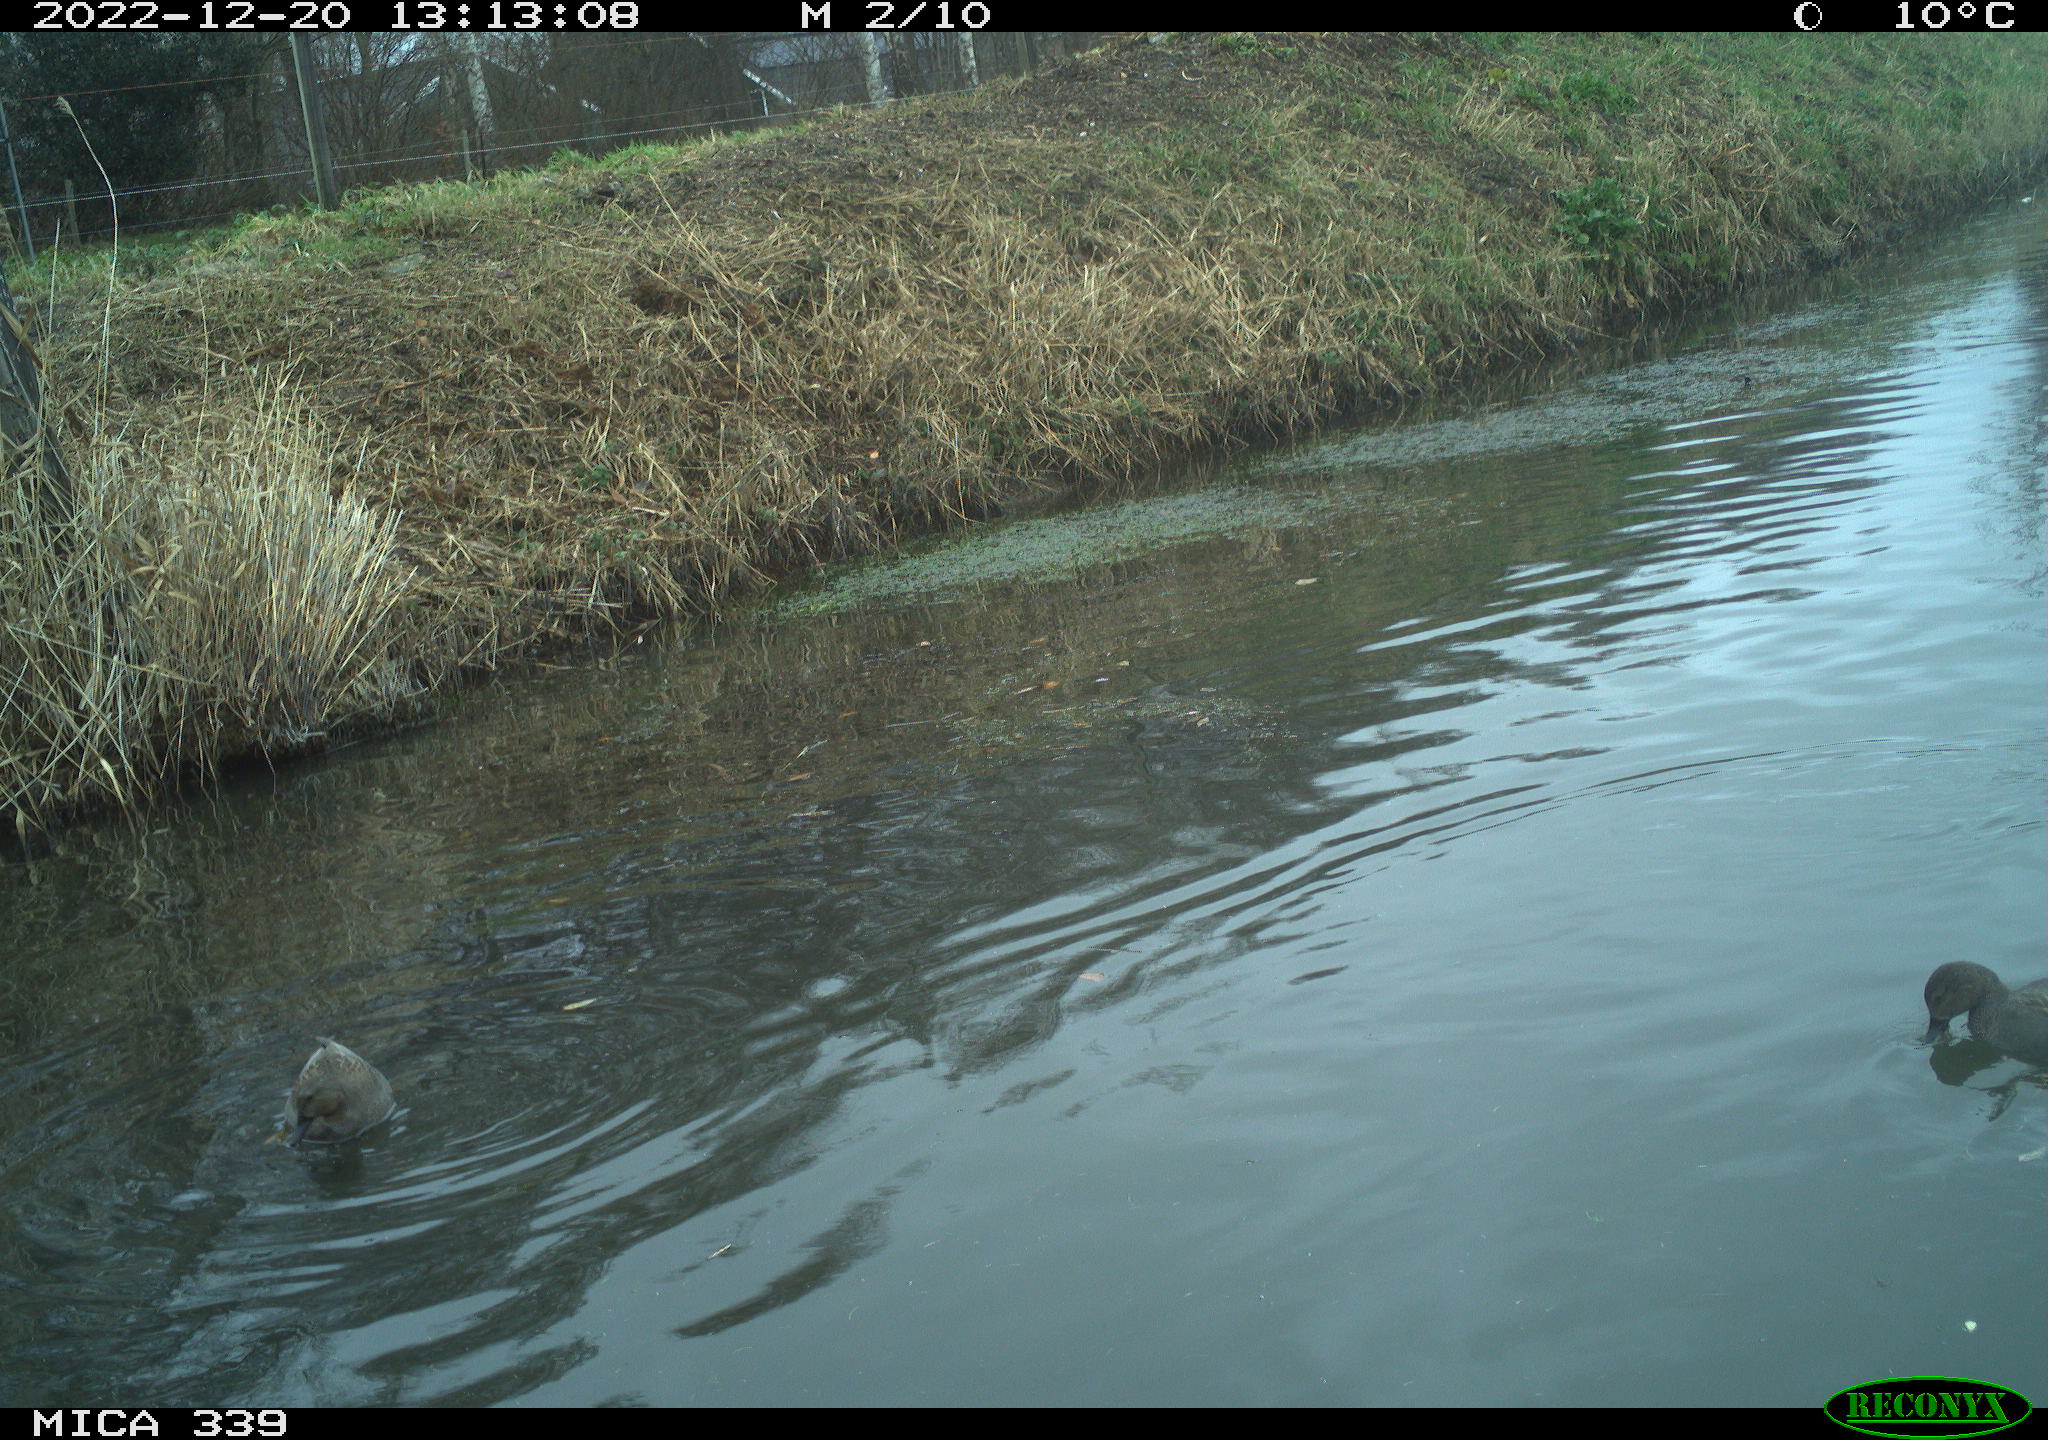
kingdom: Animalia
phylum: Chordata
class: Aves
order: Gruiformes
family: Rallidae
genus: Gallinula
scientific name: Gallinula chloropus
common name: Common moorhen
